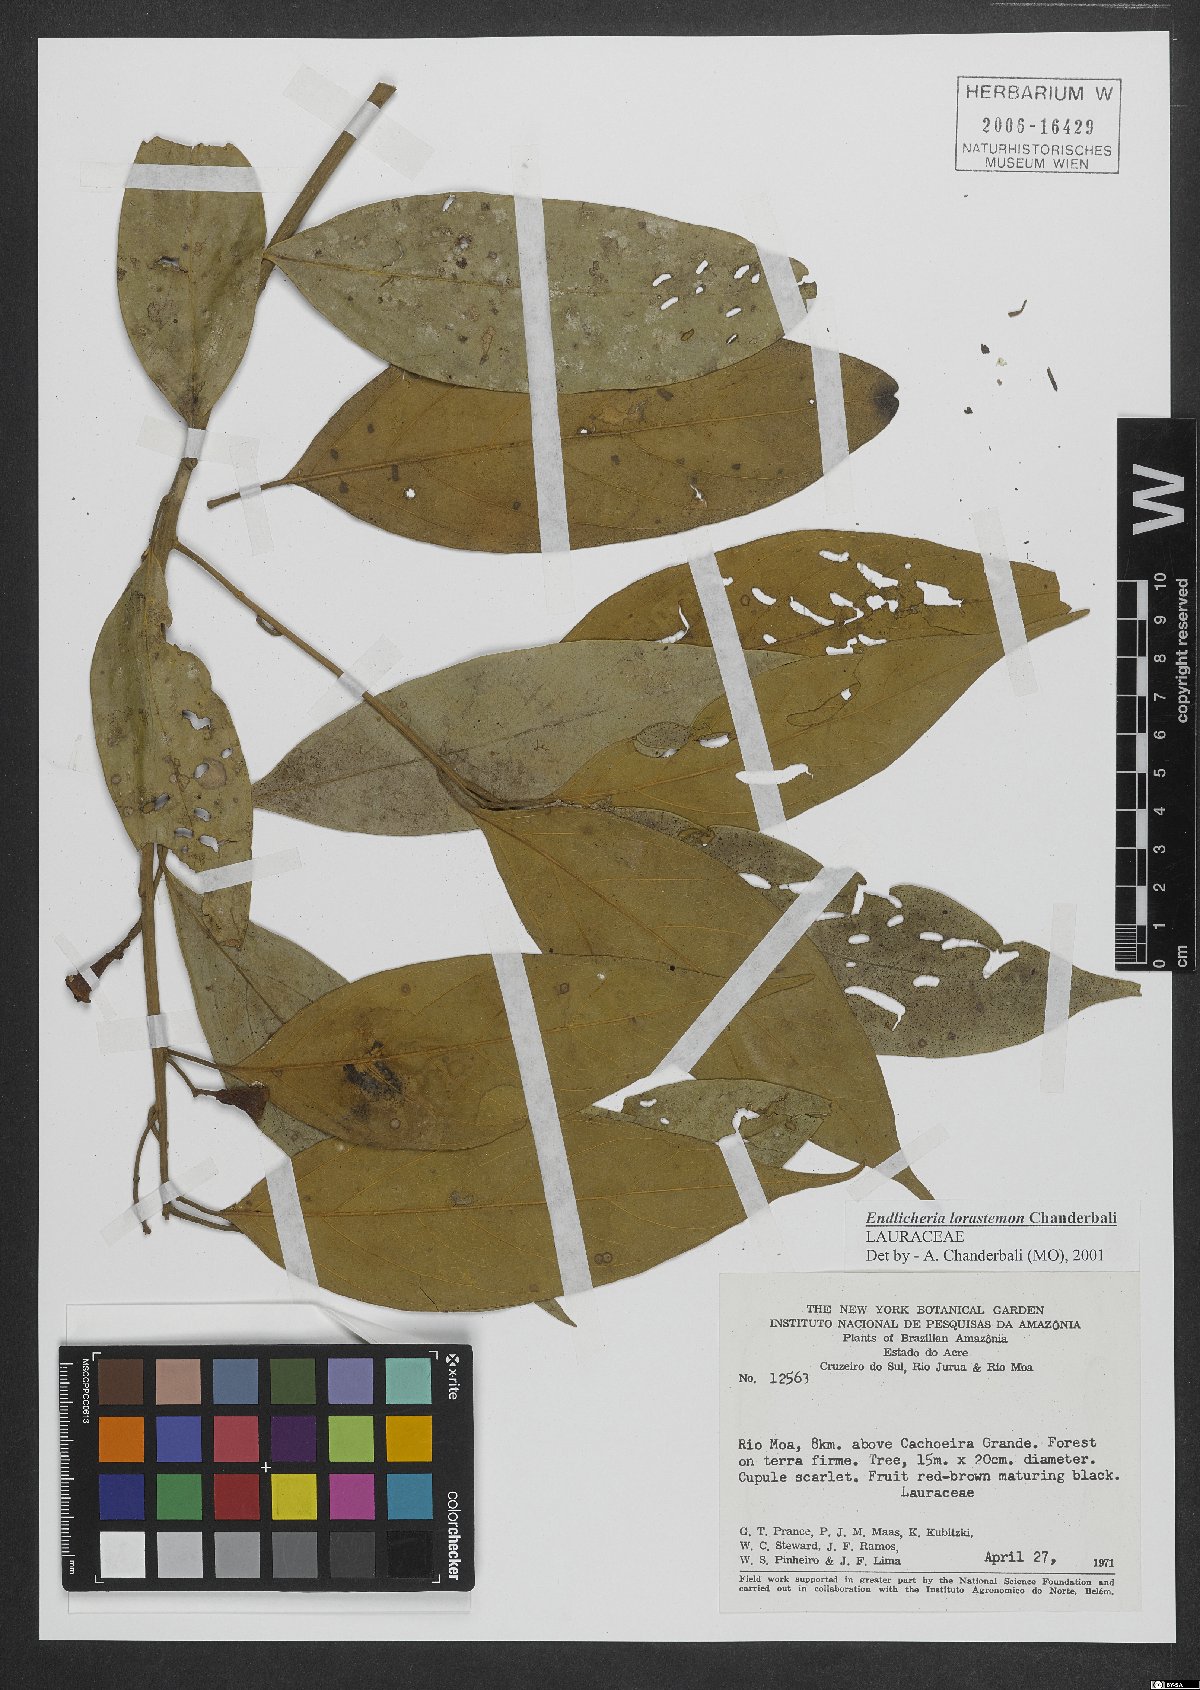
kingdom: Plantae
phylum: Tracheophyta
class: Magnoliopsida
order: Laurales
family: Lauraceae
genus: Endlicheria
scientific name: Endlicheria lorastemon
